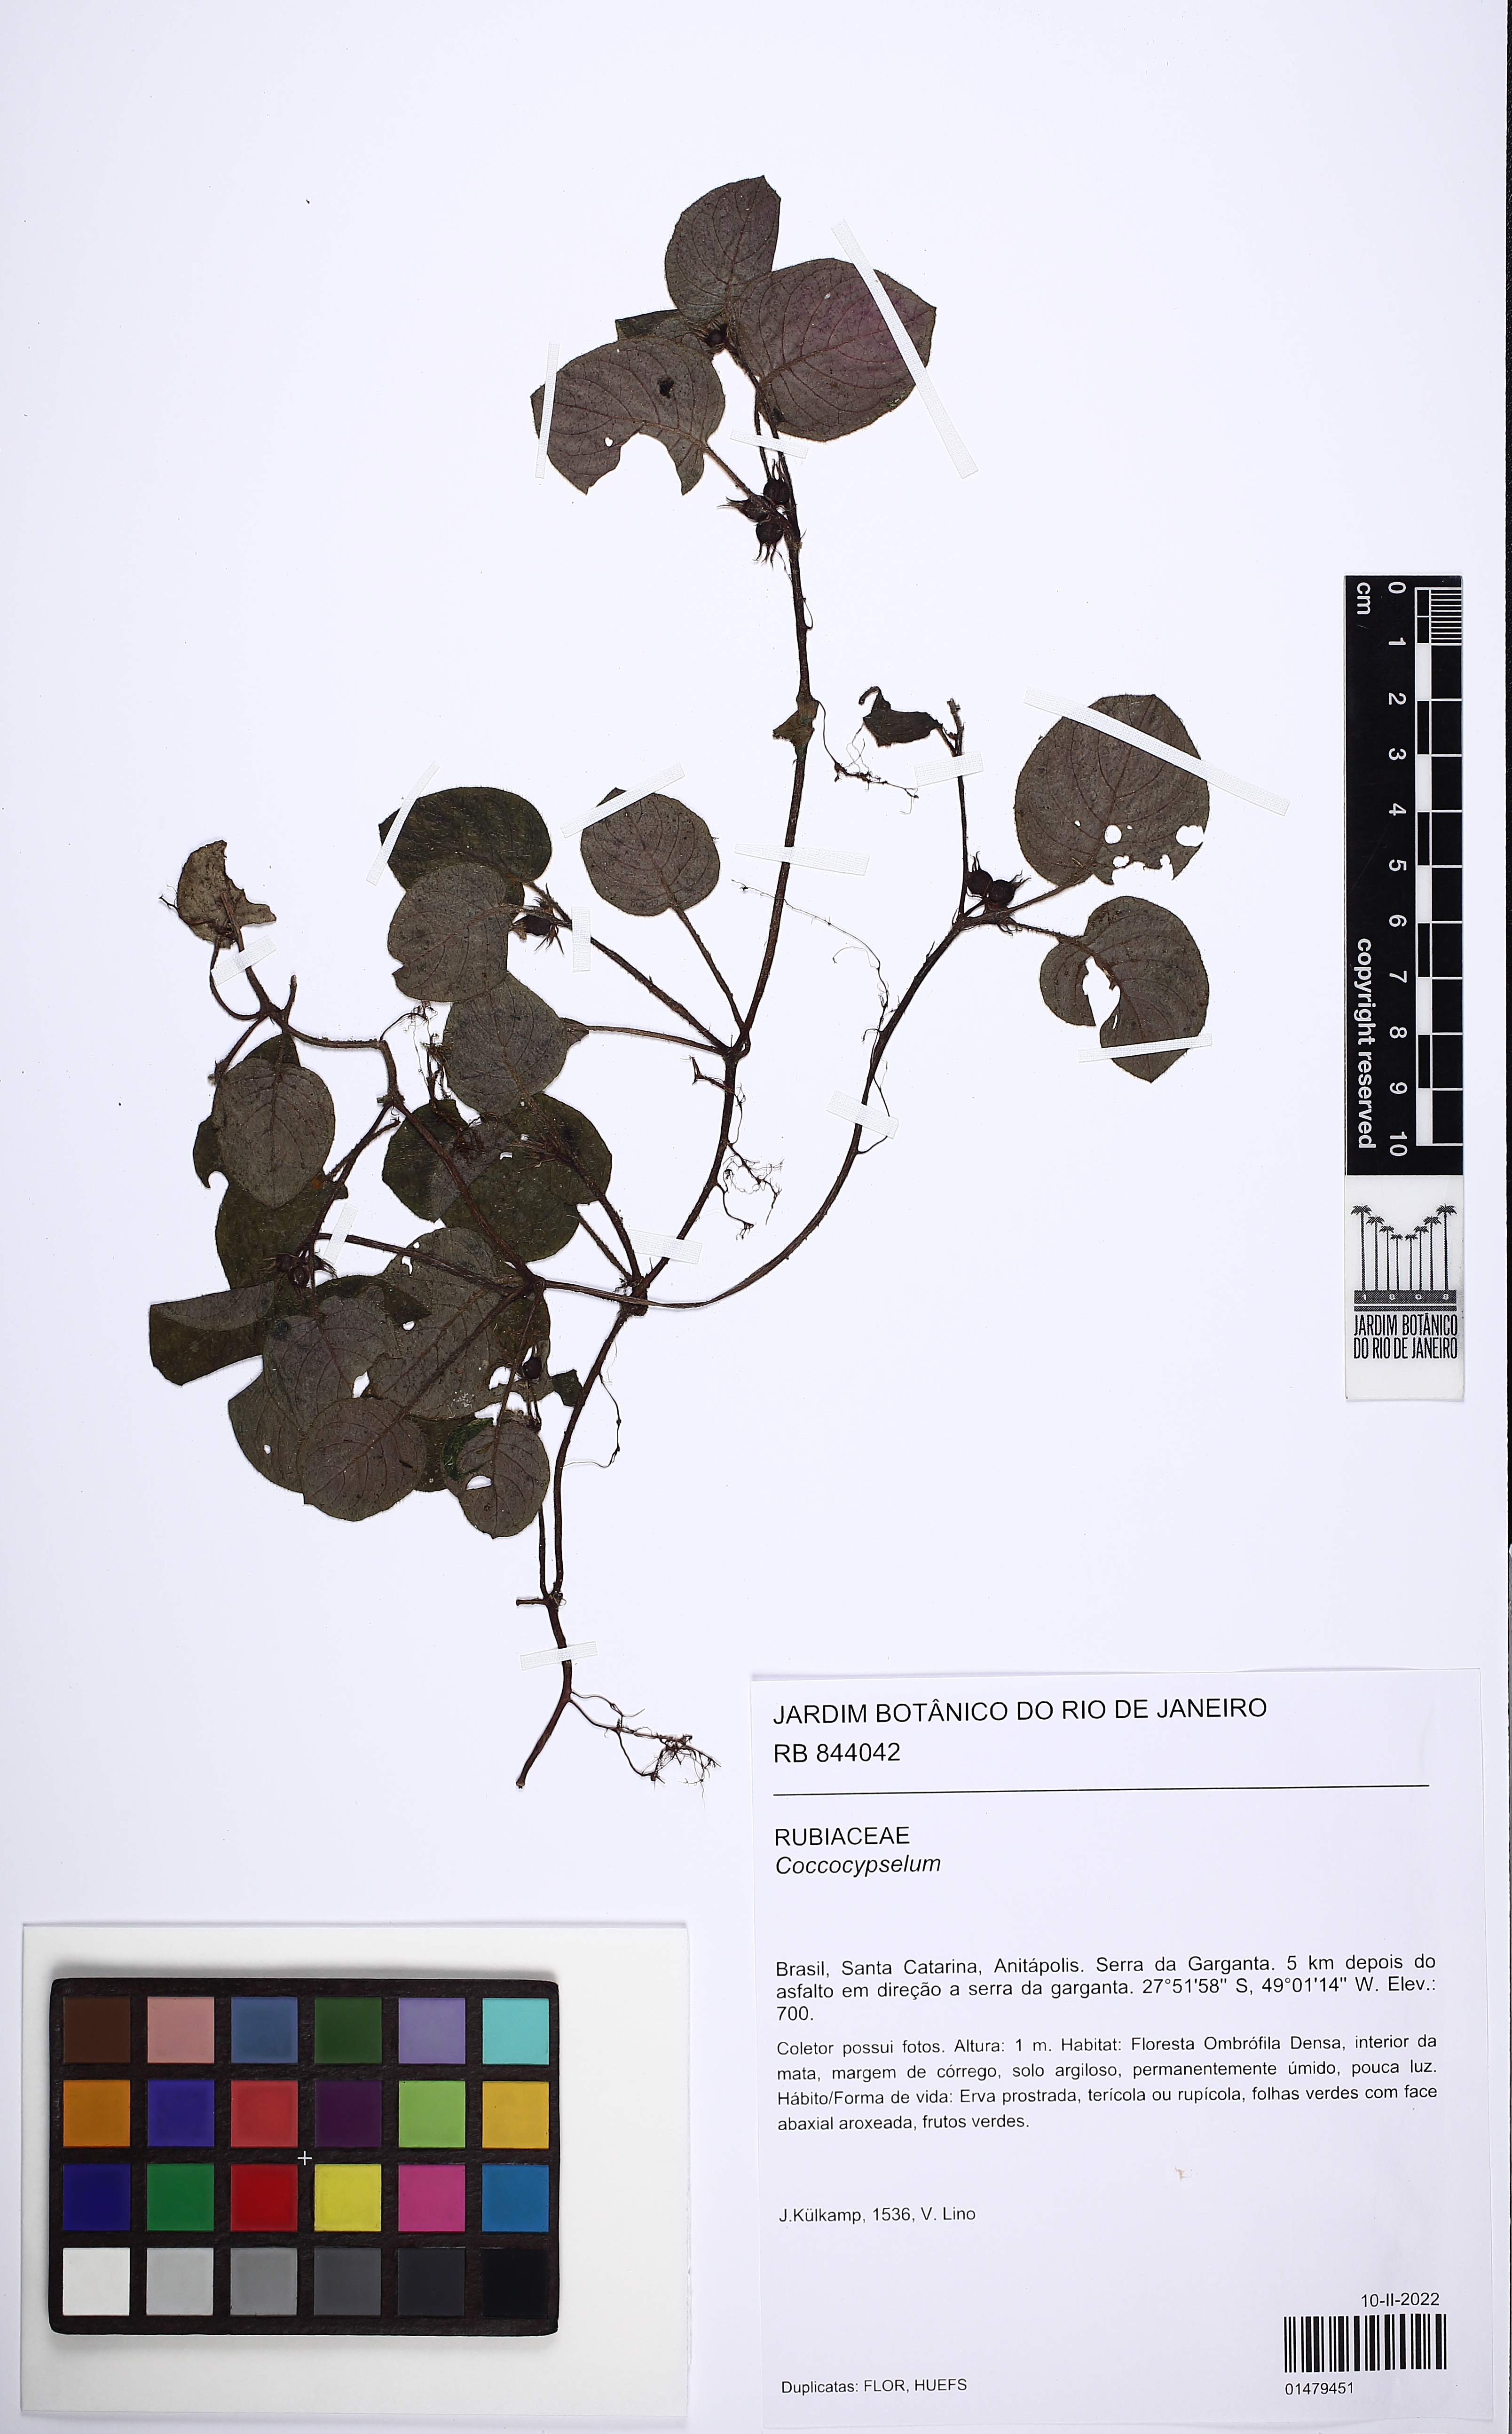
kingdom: Plantae
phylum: Tracheophyta
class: Magnoliopsida
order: Gentianales
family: Rubiaceae
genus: Coccocypselum
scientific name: Coccocypselum
